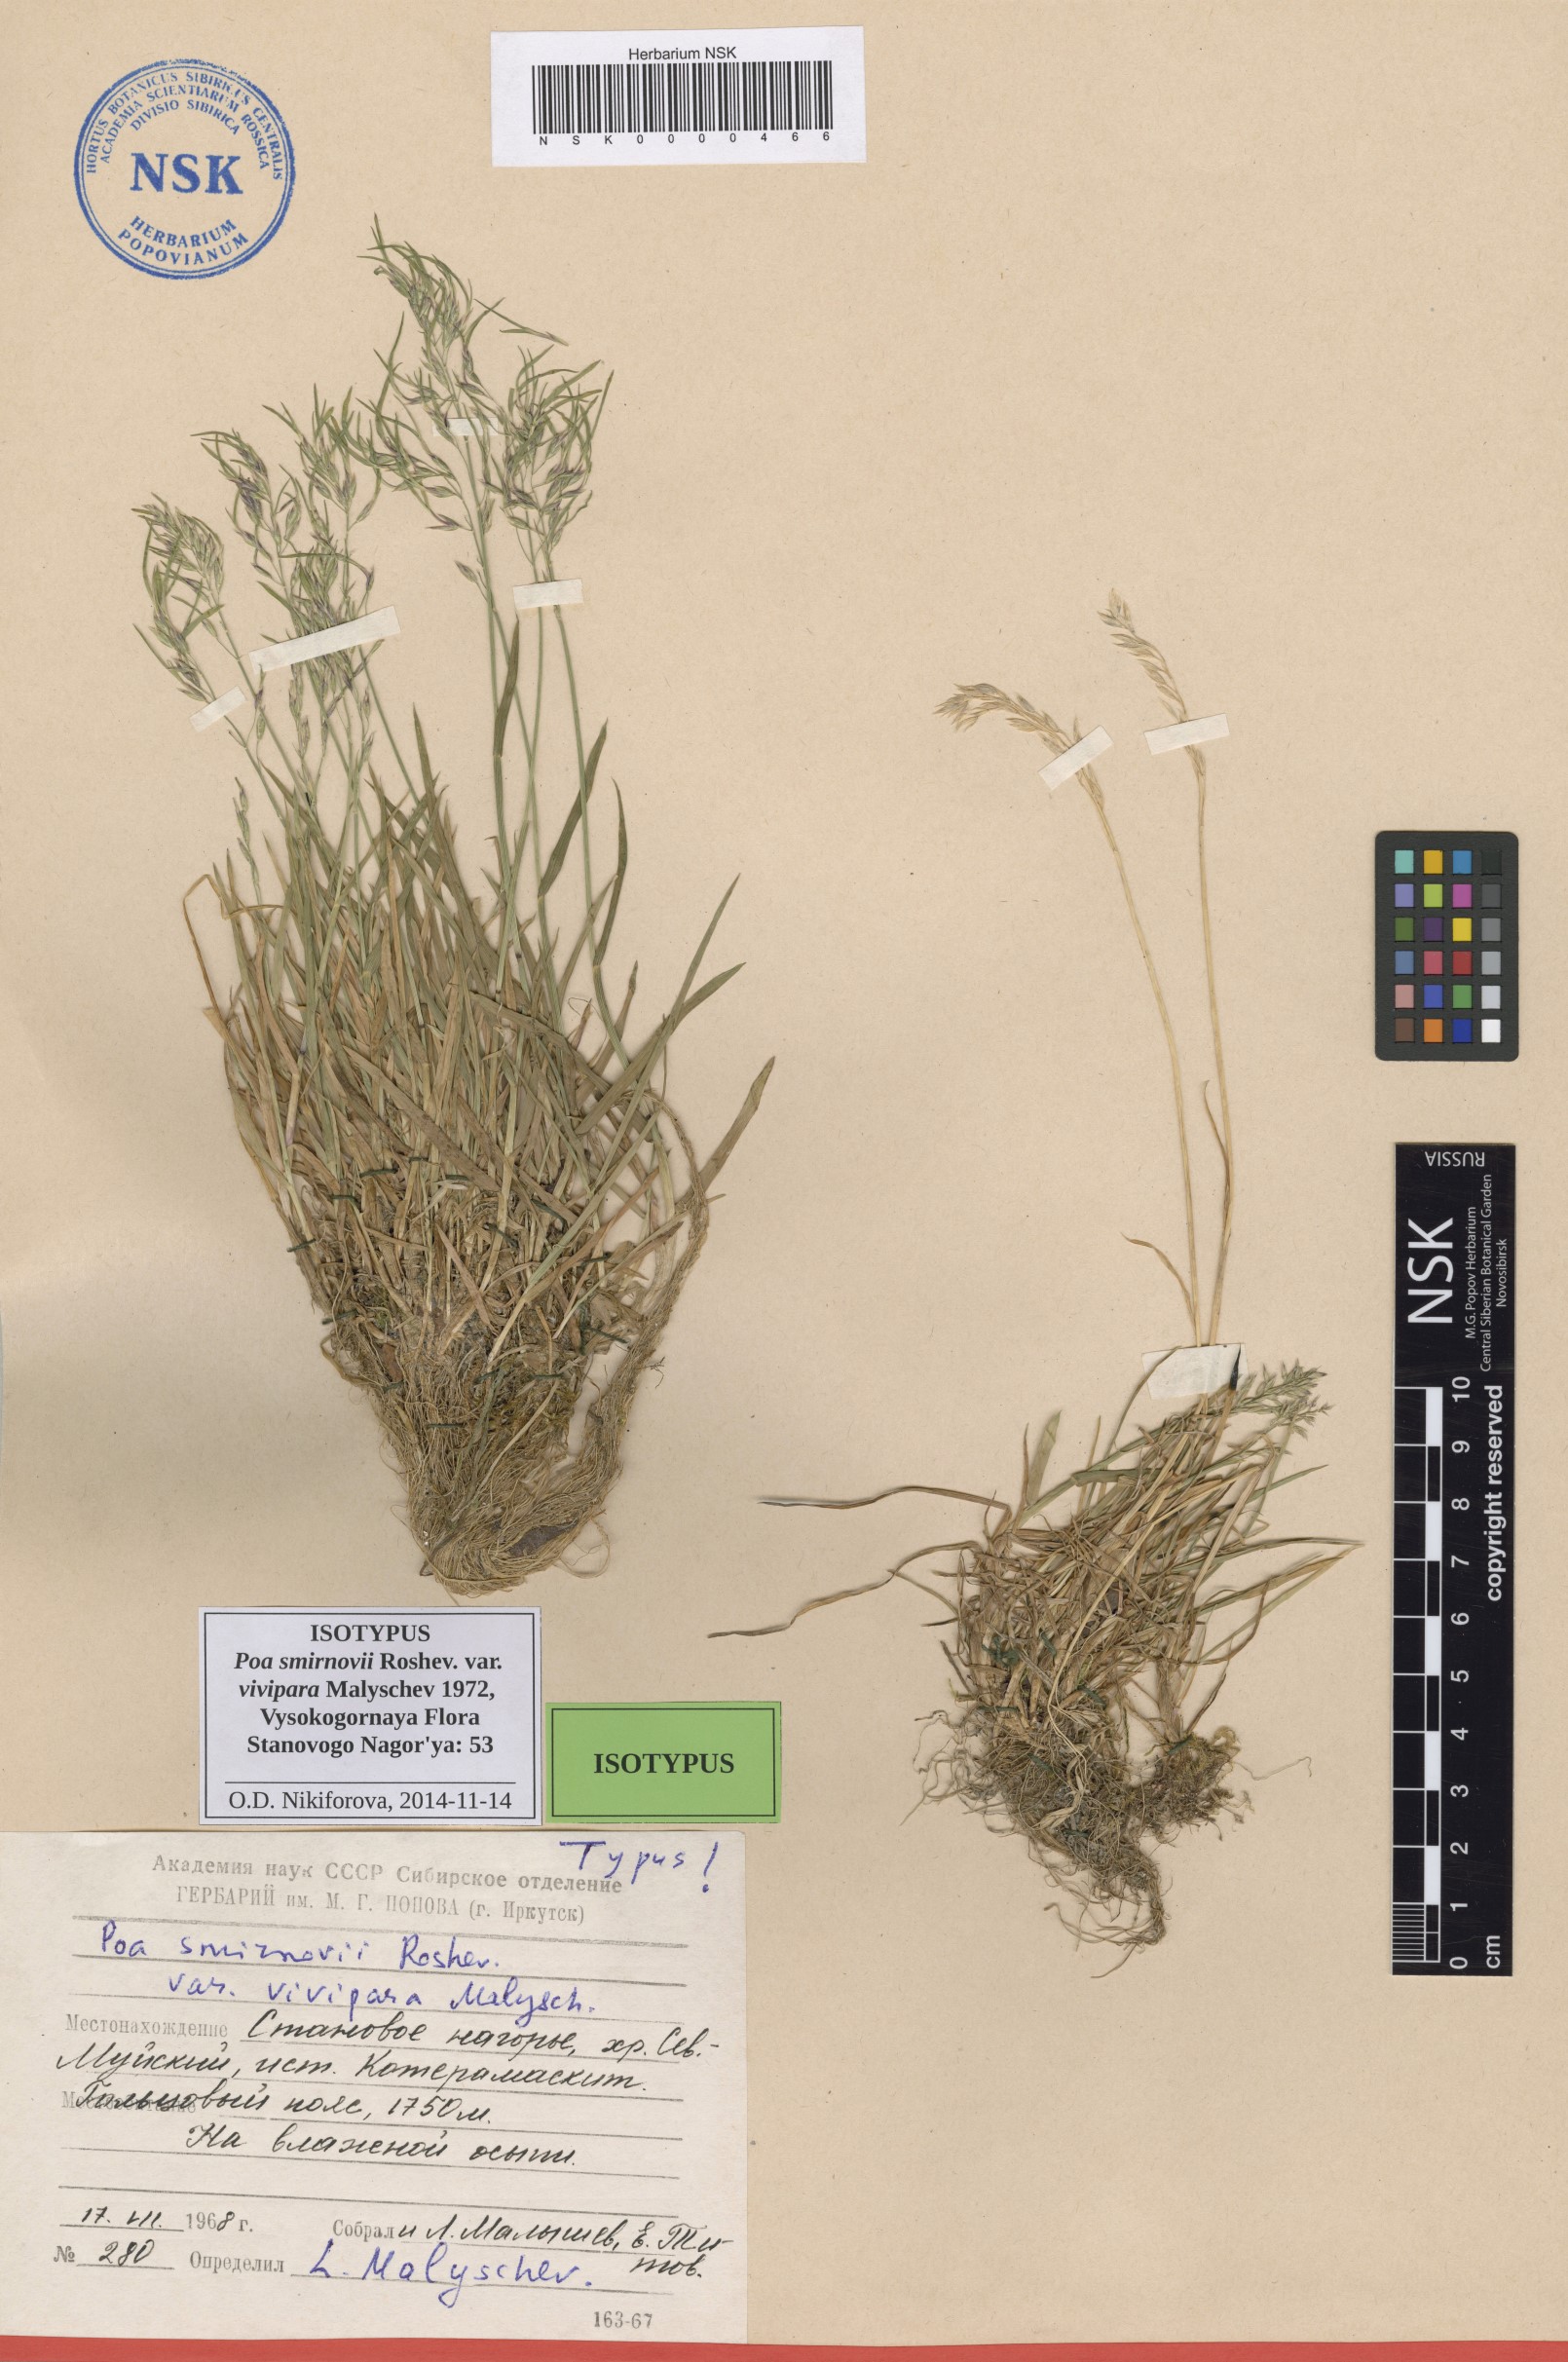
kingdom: Plantae
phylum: Tracheophyta
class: Liliopsida
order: Poales
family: Poaceae
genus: Poa
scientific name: Poa smirnowii
